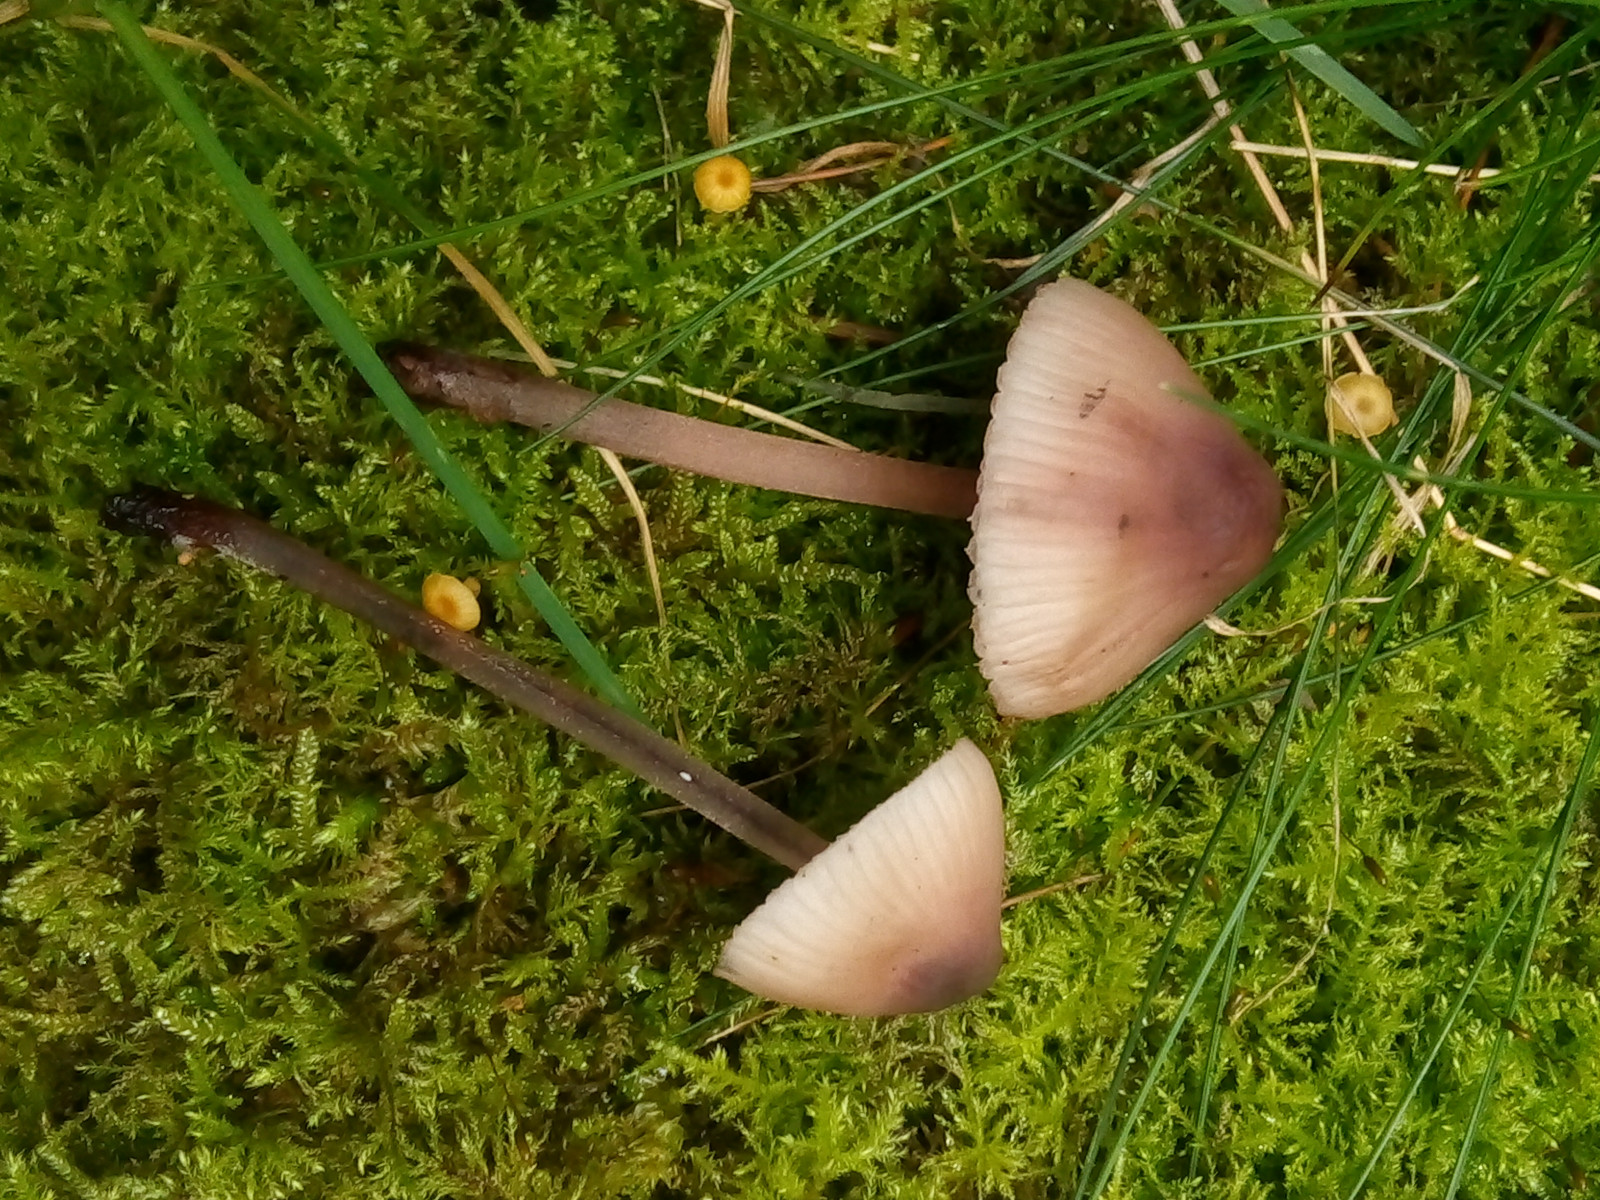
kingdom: Fungi
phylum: Basidiomycota
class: Agaricomycetes
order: Agaricales
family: Mycenaceae
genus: Mycena
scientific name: Mycena haematopus
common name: blødende huesvamp
